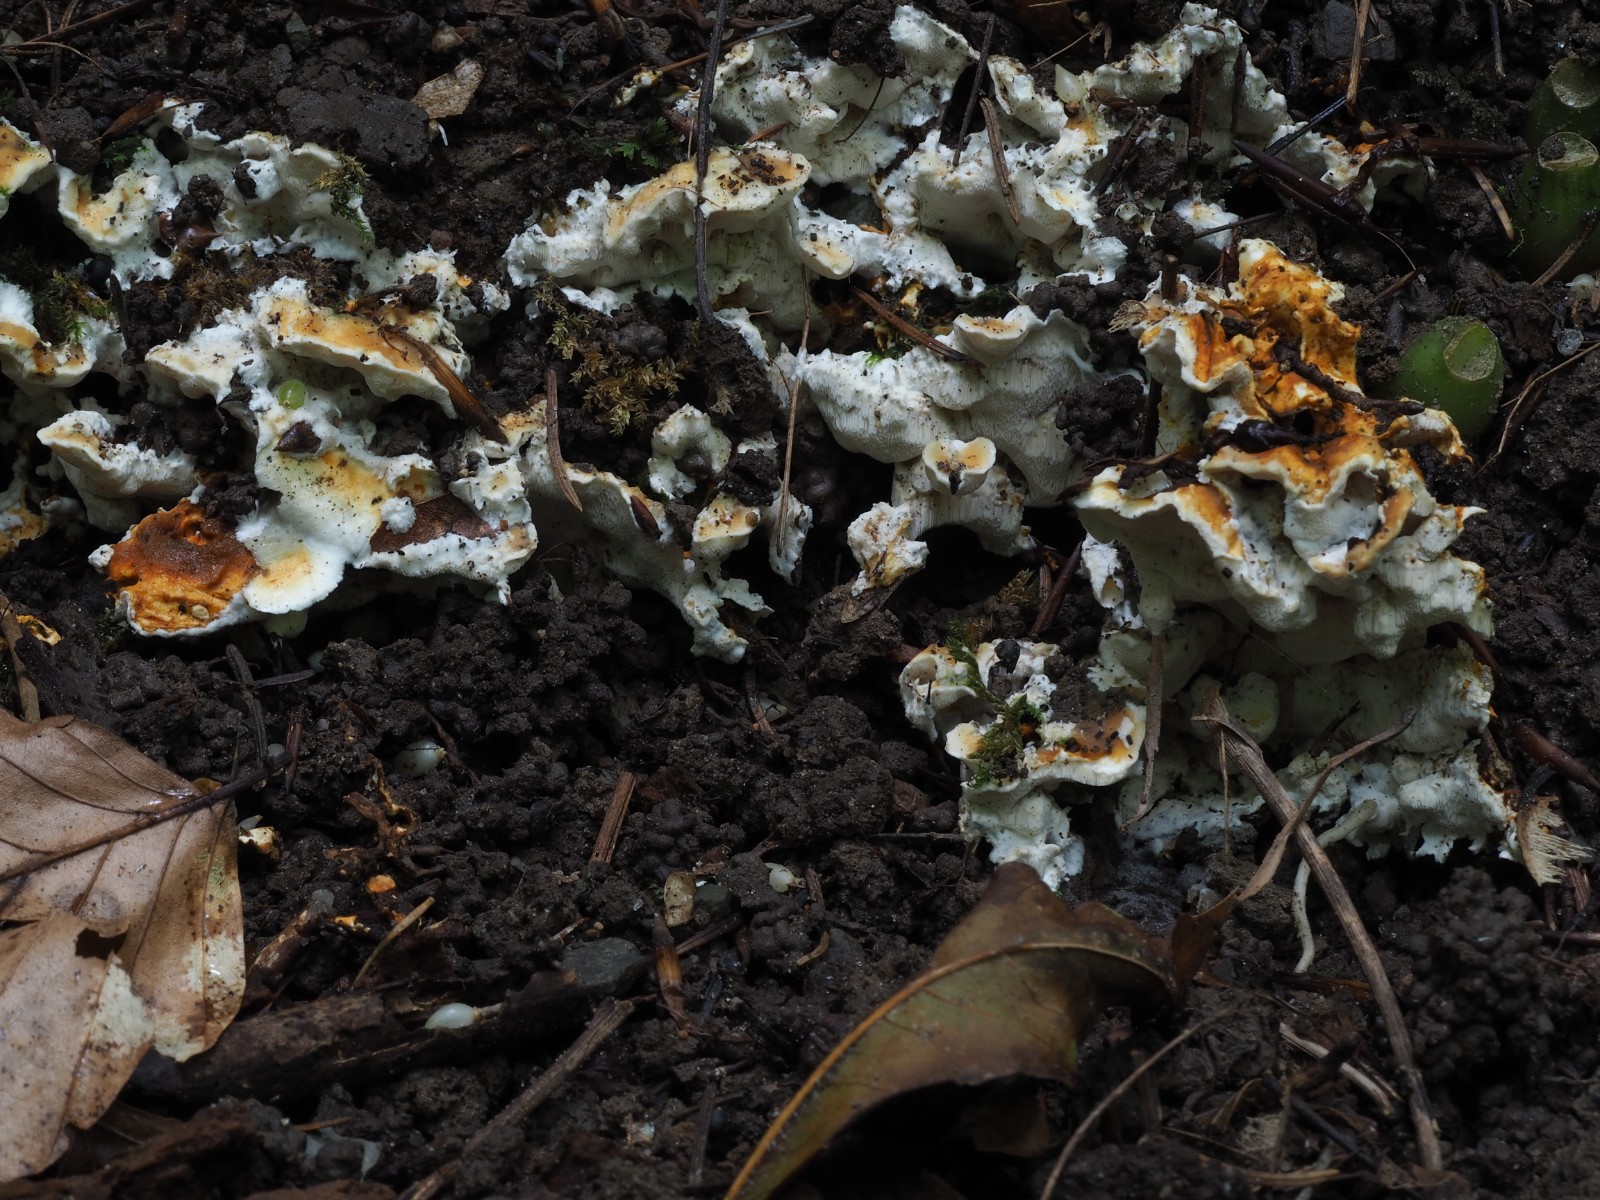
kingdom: Fungi
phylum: Basidiomycota
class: Agaricomycetes
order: Polyporales
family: Steccherinaceae
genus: Loweomyces
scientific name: Loweomyces wynneae
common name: krybende blødporesvamp
